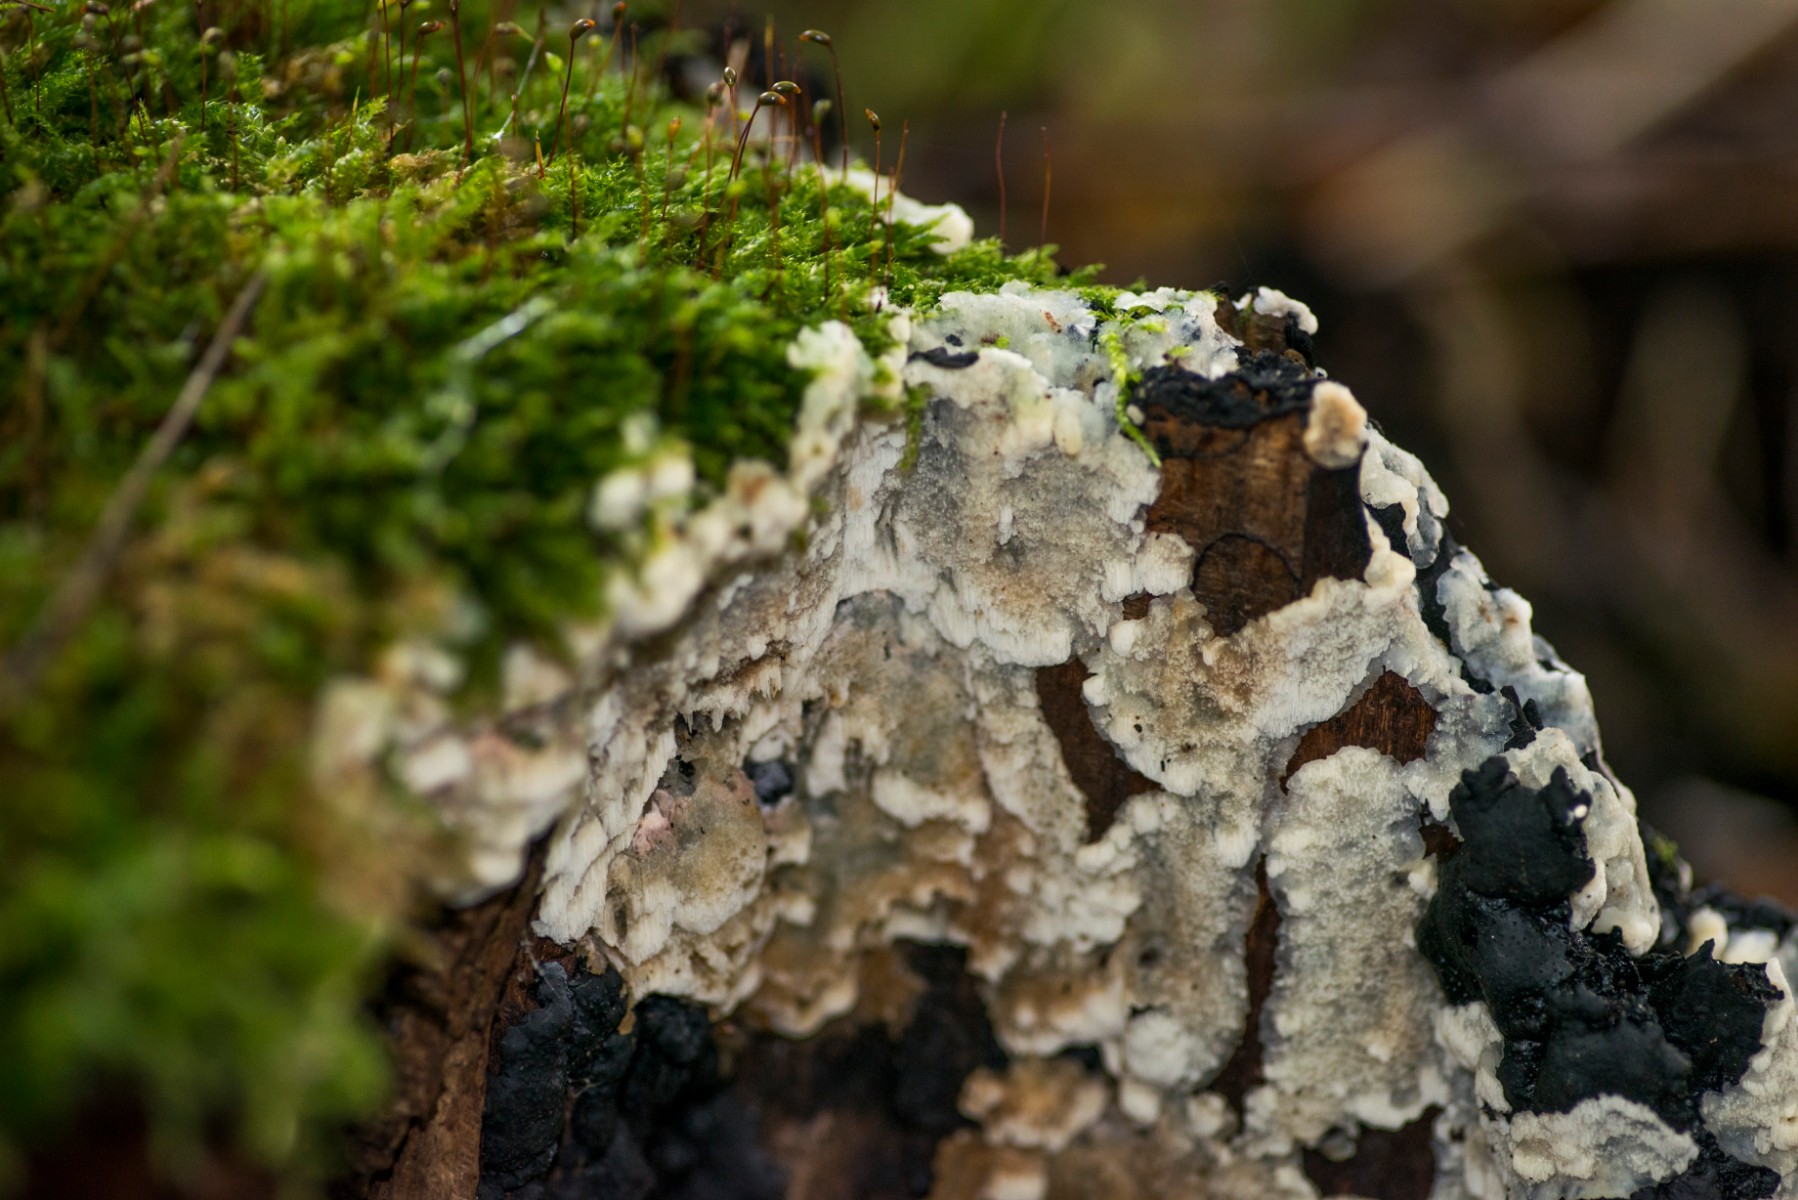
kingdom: Fungi
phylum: Basidiomycota
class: Agaricomycetes
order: Polyporales
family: Meruliaceae
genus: Physisporinus
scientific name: Physisporinus
